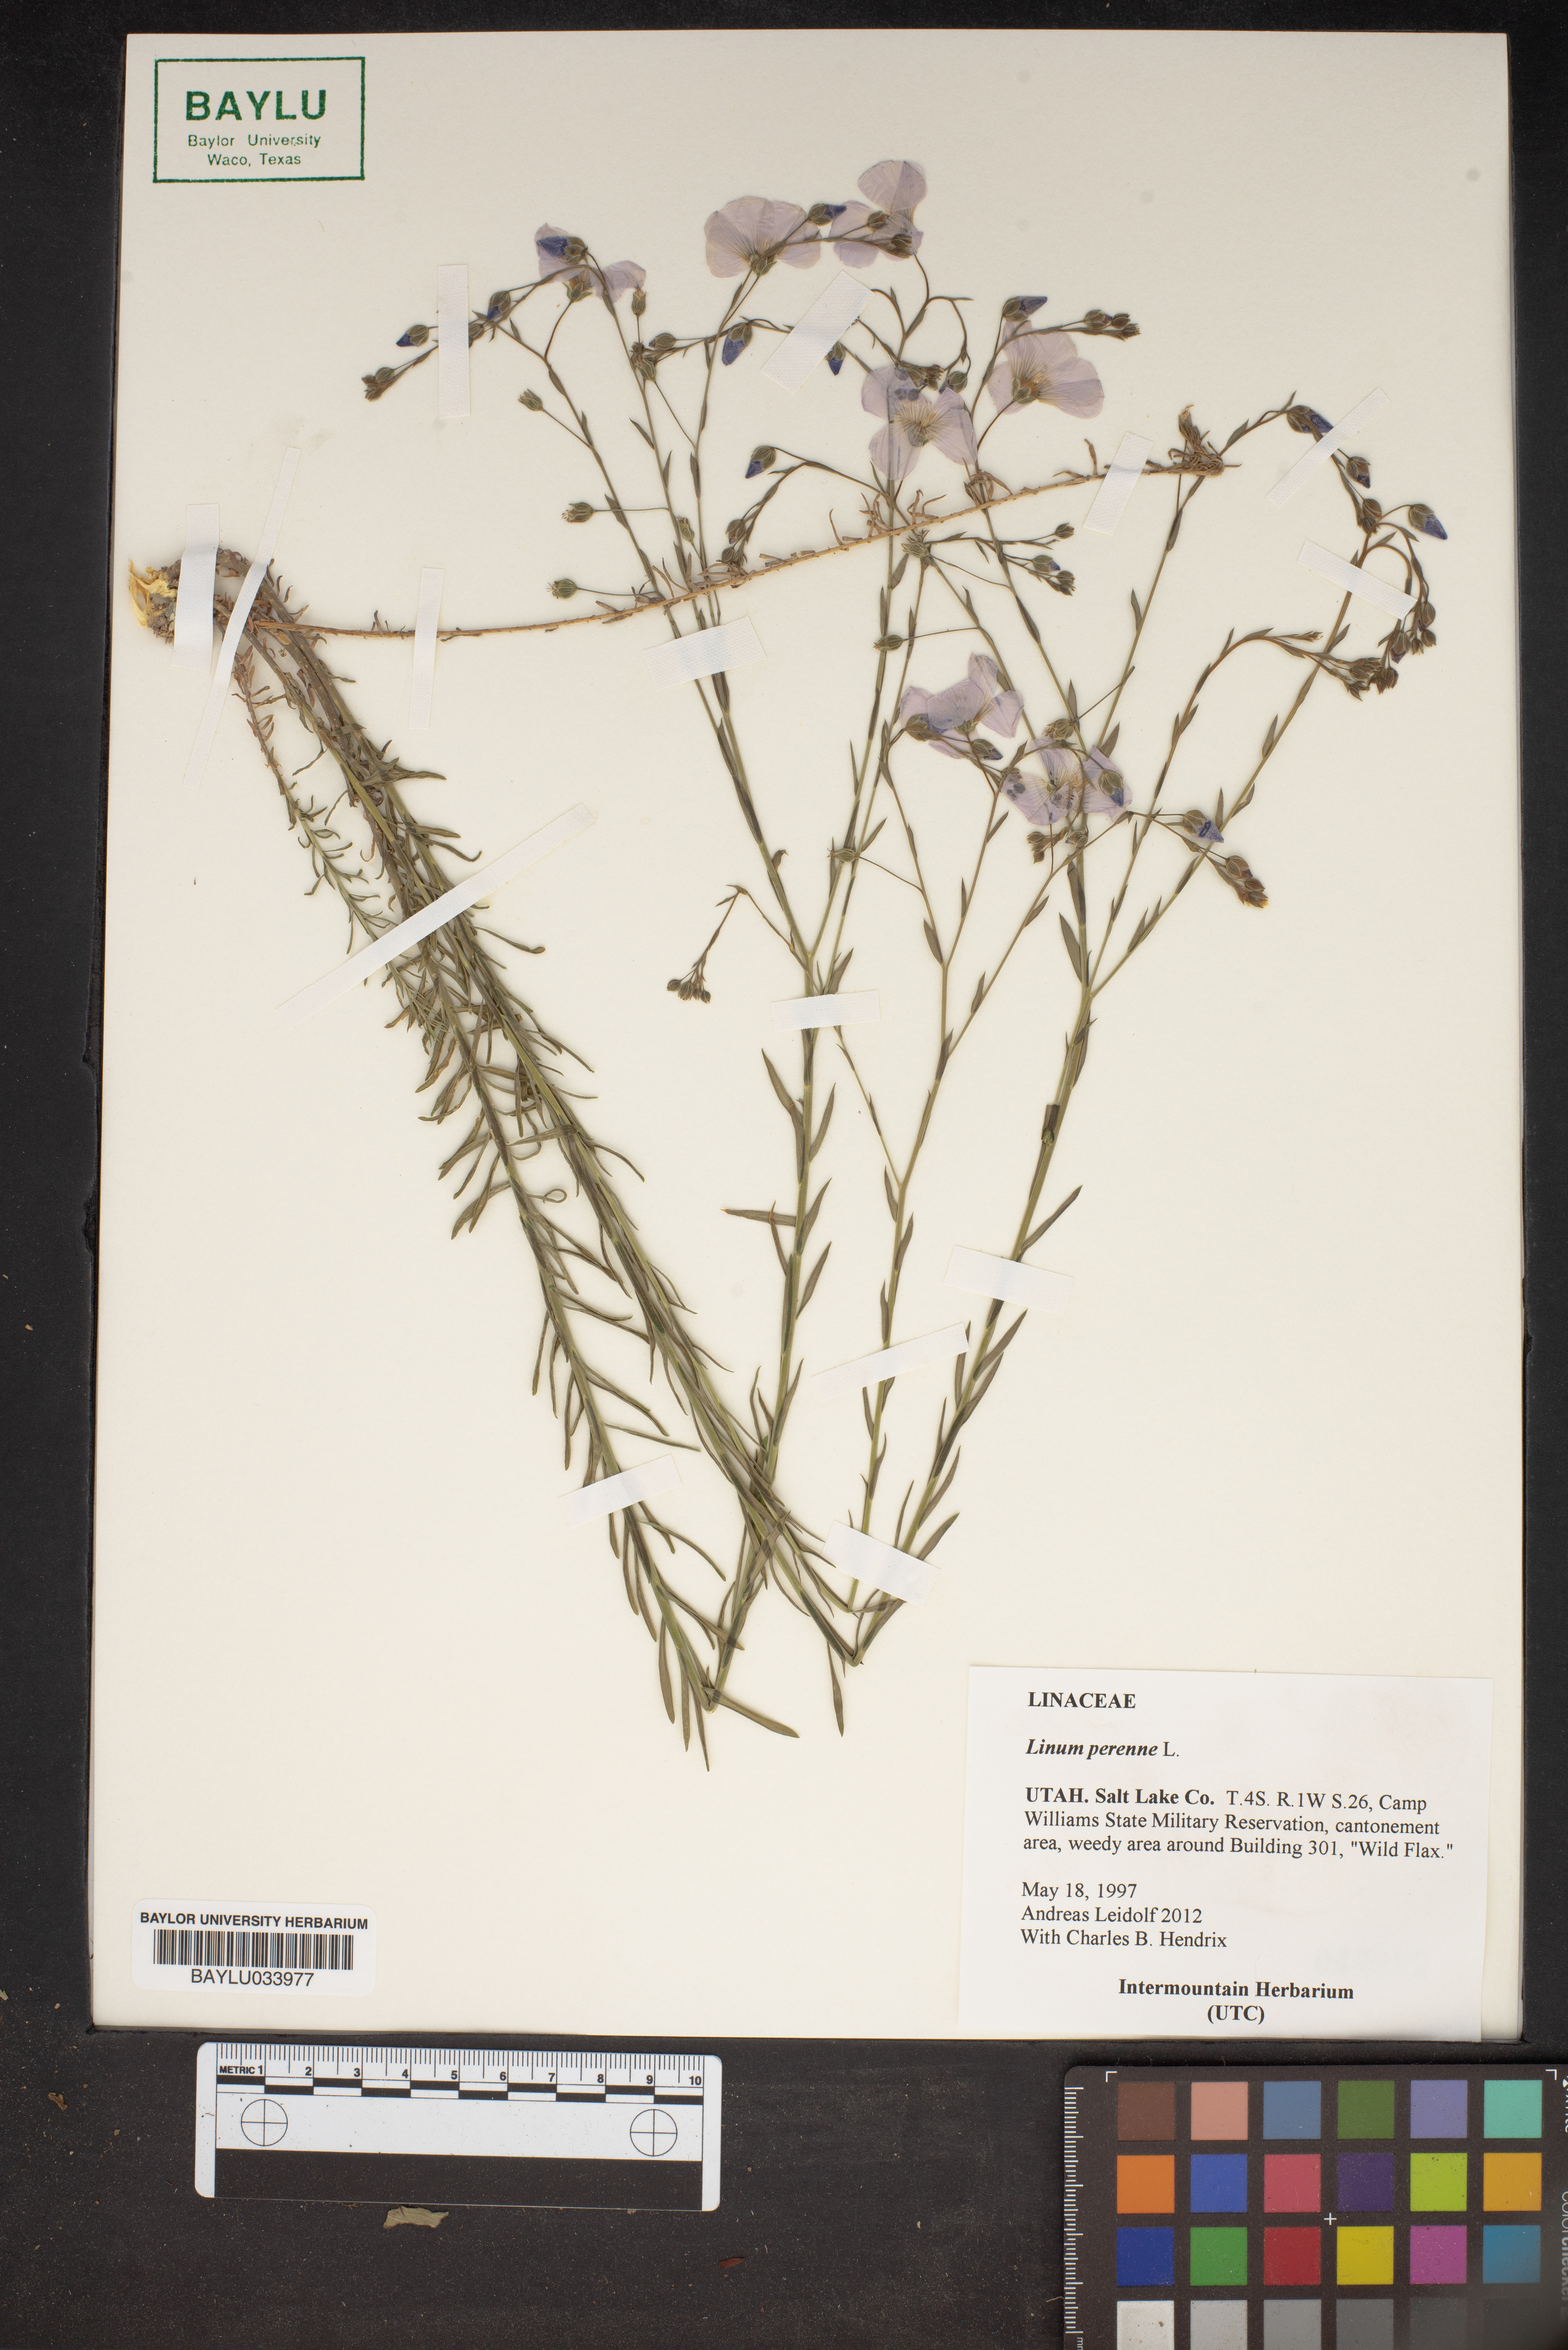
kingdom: Plantae
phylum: Tracheophyta
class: Magnoliopsida
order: Malpighiales
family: Linaceae
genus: Linum
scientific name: Linum perenne
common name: Blue flax
